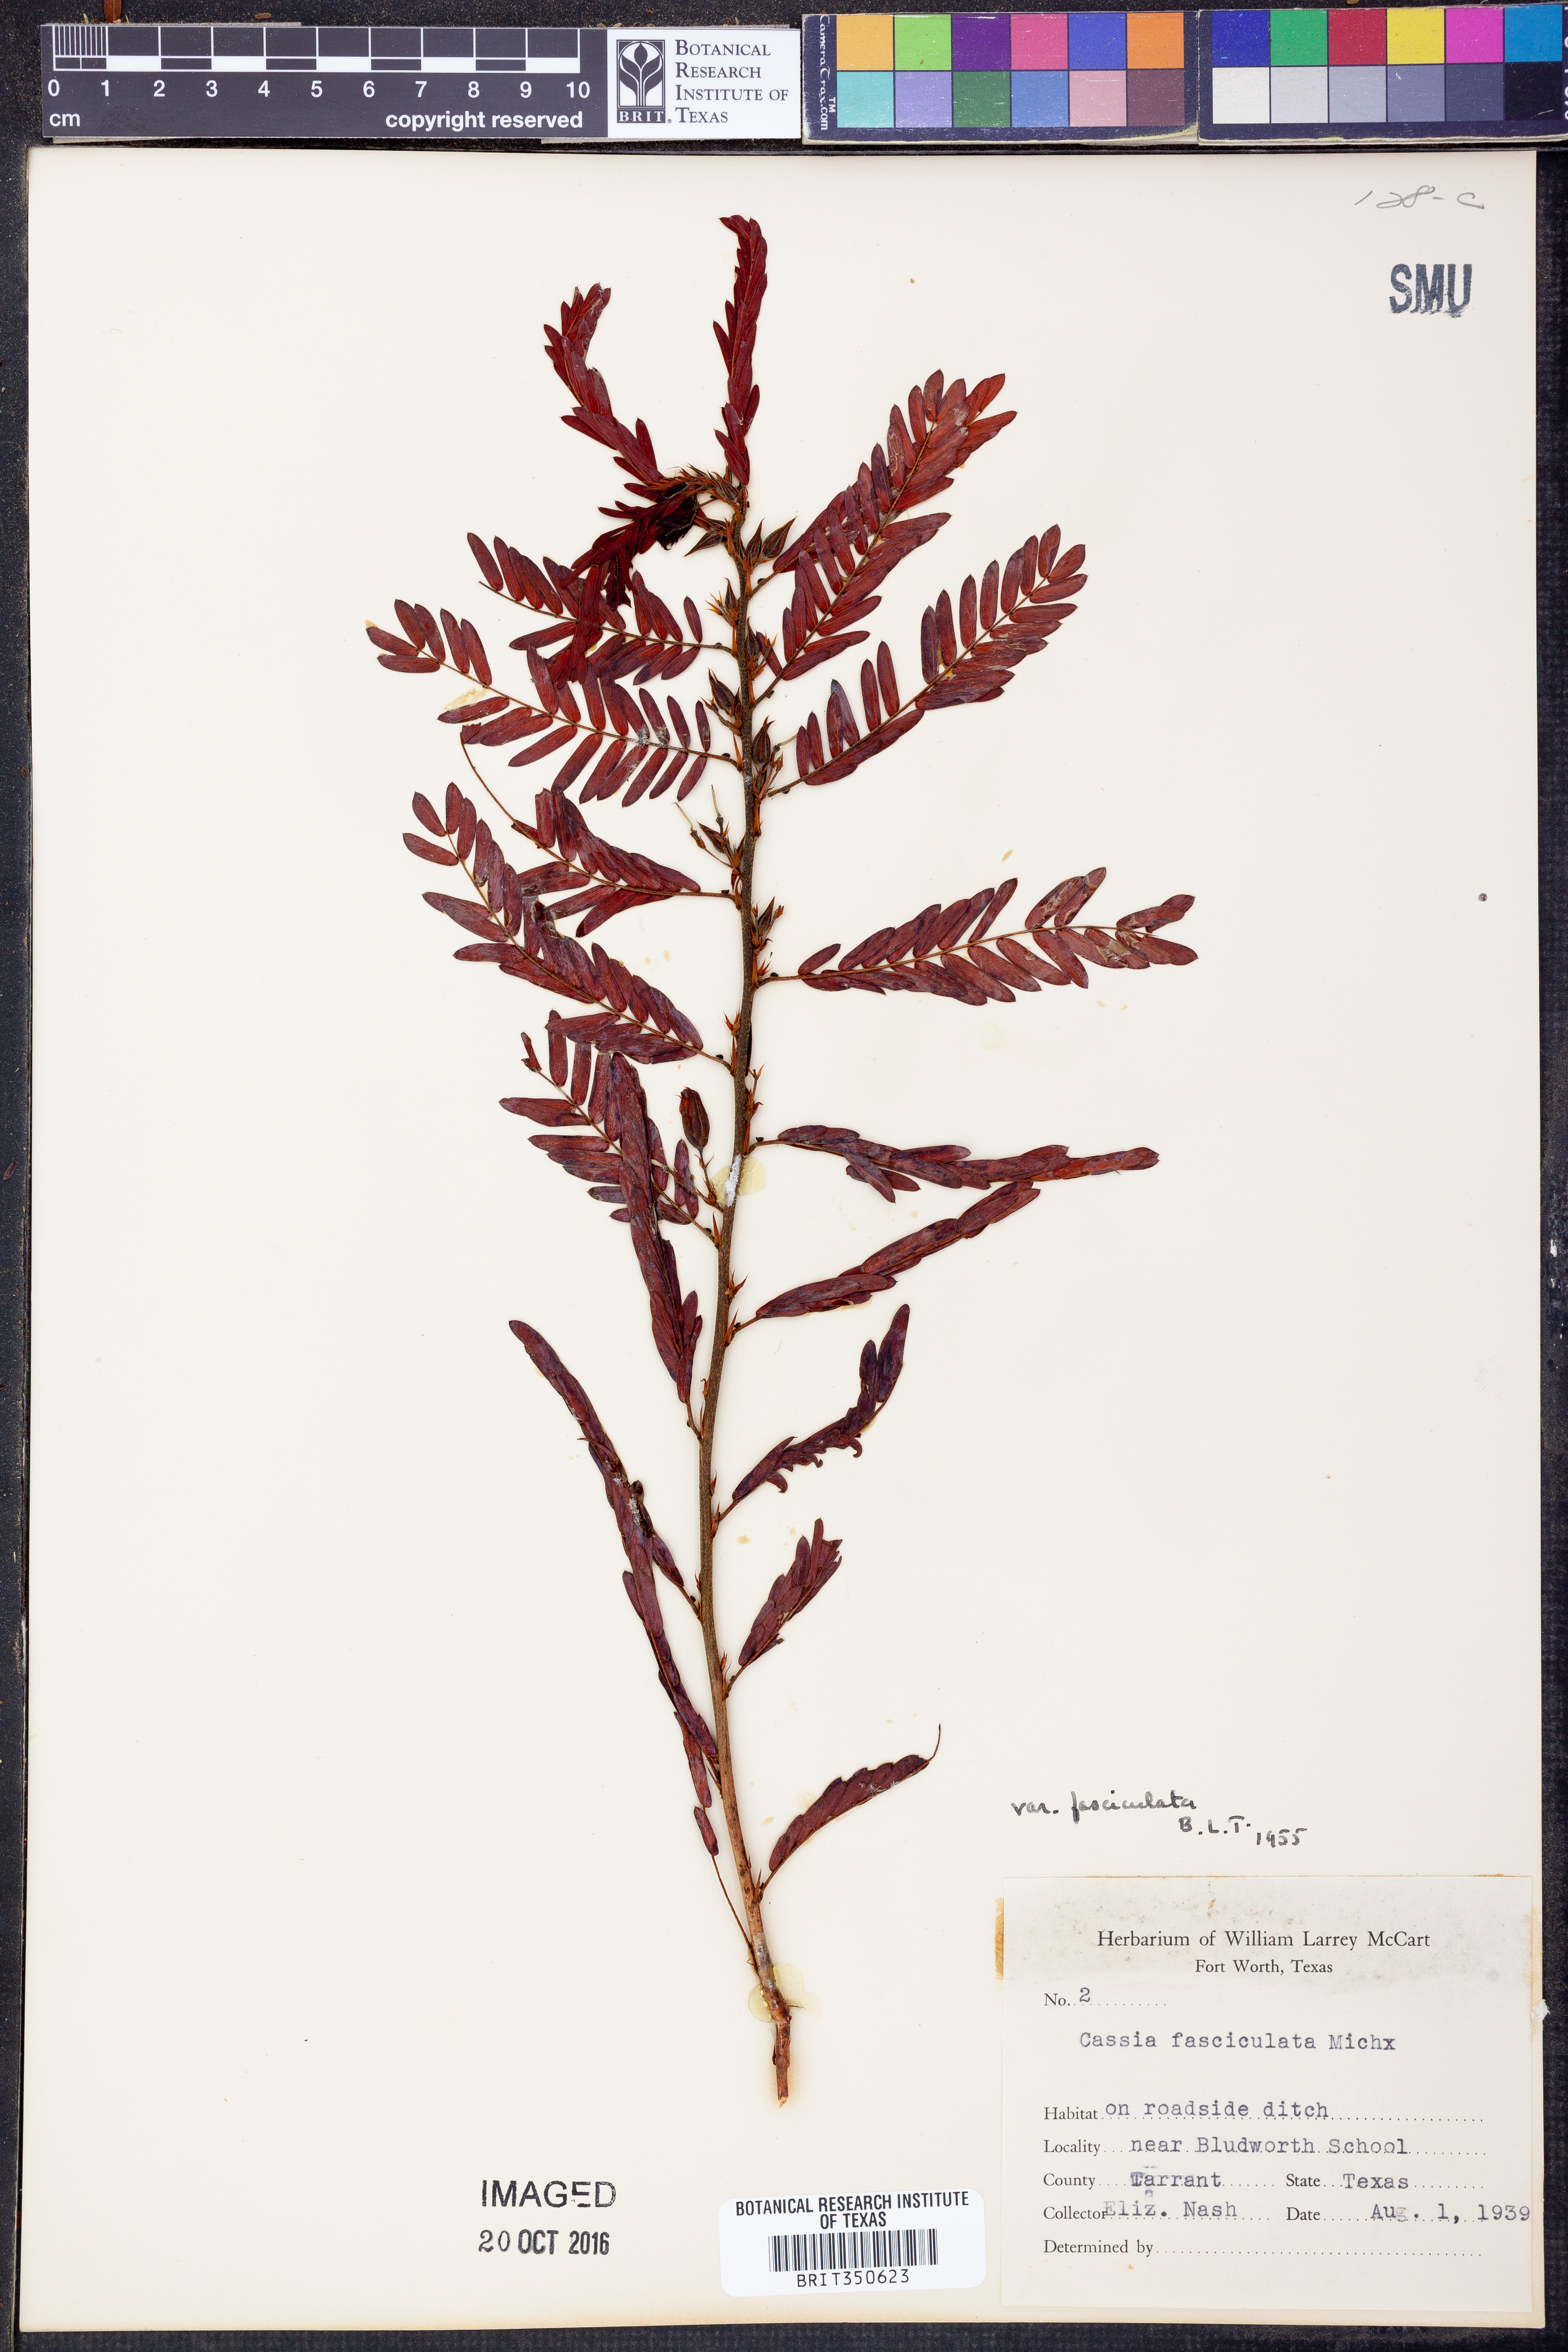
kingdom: Plantae
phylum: Tracheophyta
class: Magnoliopsida
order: Fabales
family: Fabaceae
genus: Chamaecrista
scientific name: Chamaecrista fasciculata
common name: Golden cassia
